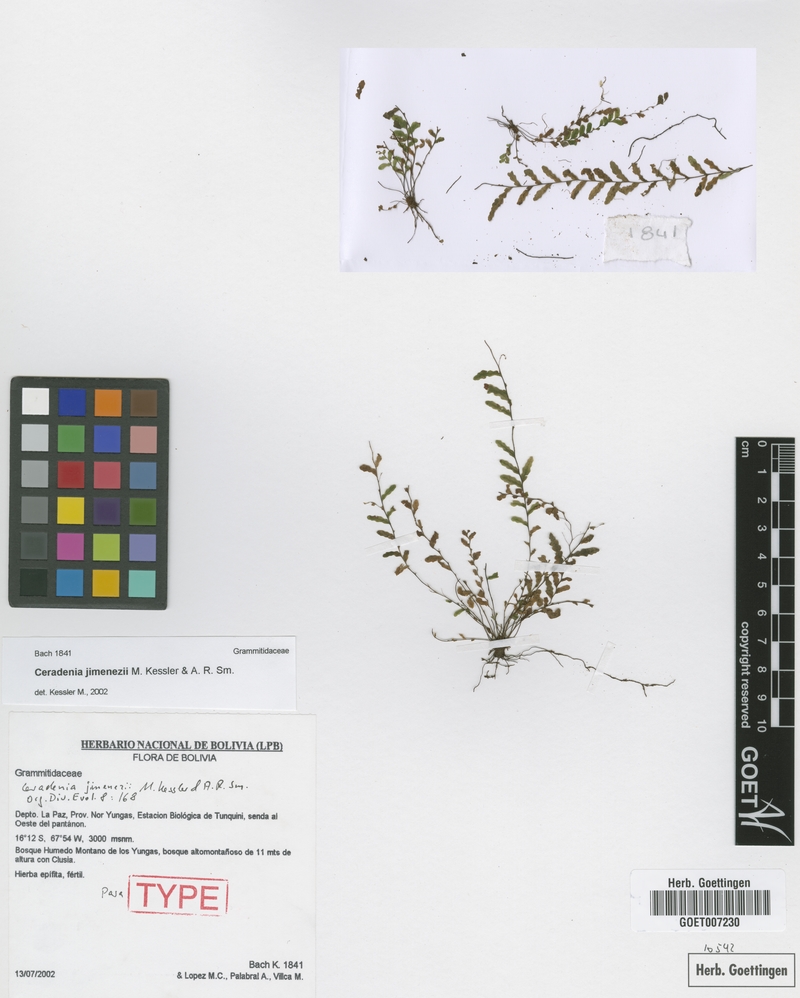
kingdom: Plantae
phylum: Tracheophyta
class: Polypodiopsida
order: Polypodiales
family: Polypodiaceae
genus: Ceradenia
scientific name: Ceradenia jimenezii
